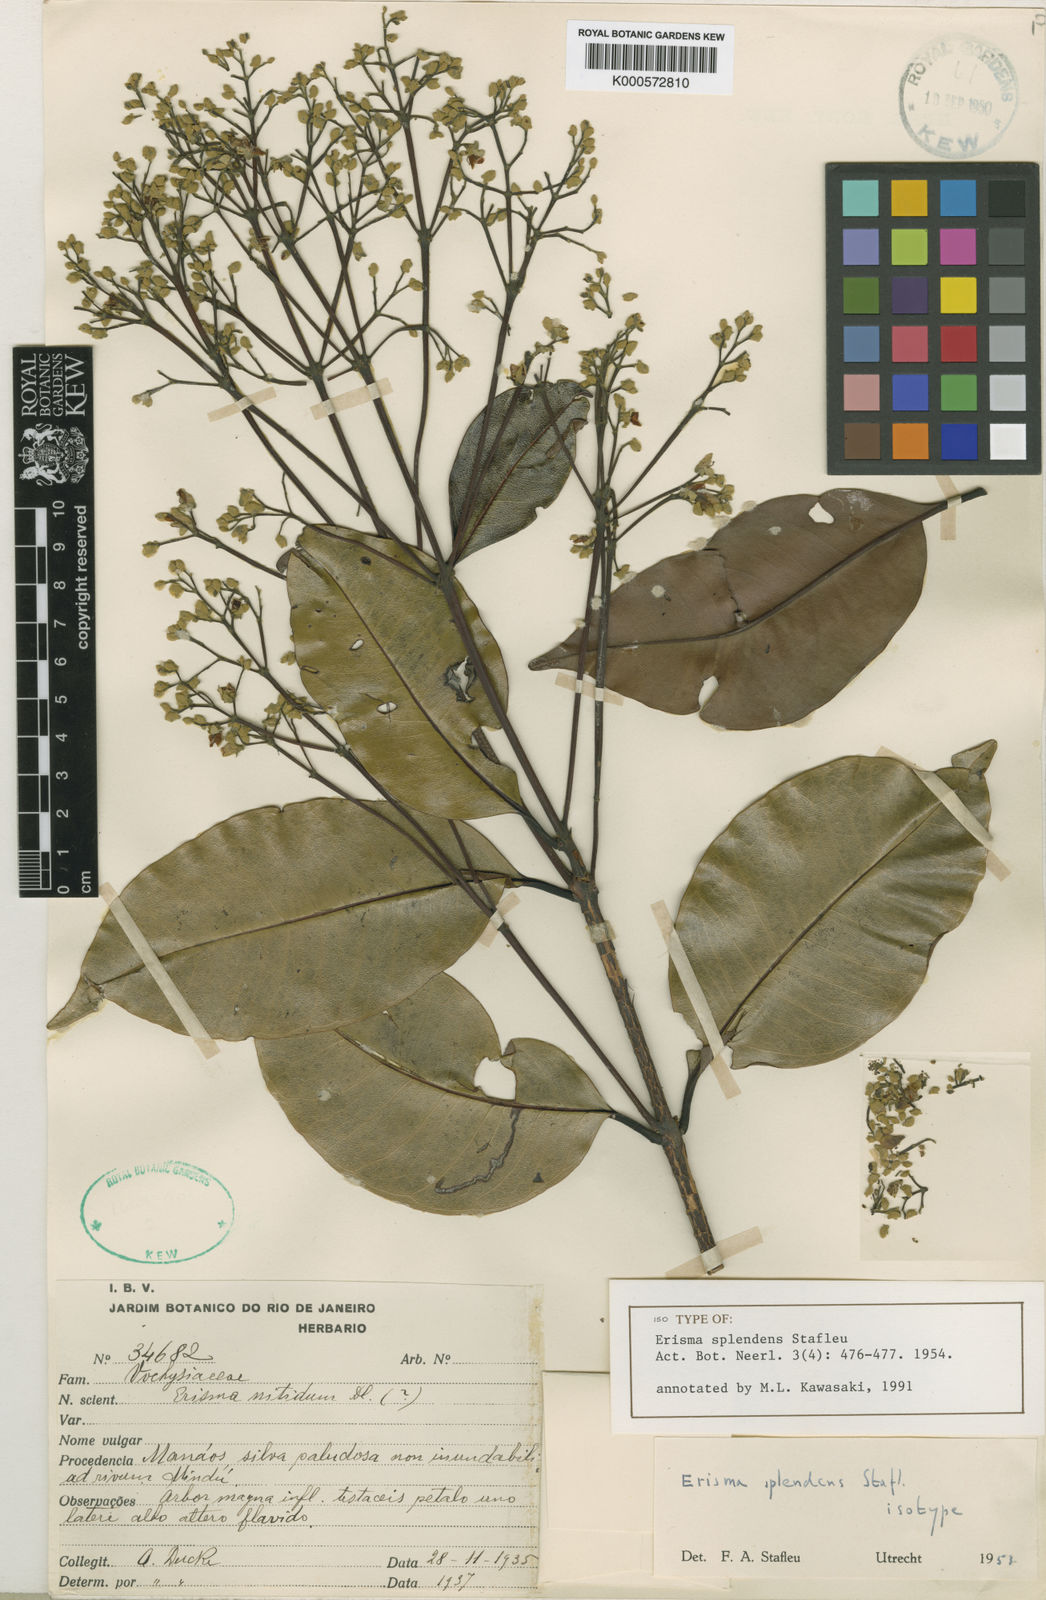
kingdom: Plantae
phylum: Tracheophyta
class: Magnoliopsida
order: Myrtales
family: Vochysiaceae
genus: Erisma
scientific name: Erisma splendens
